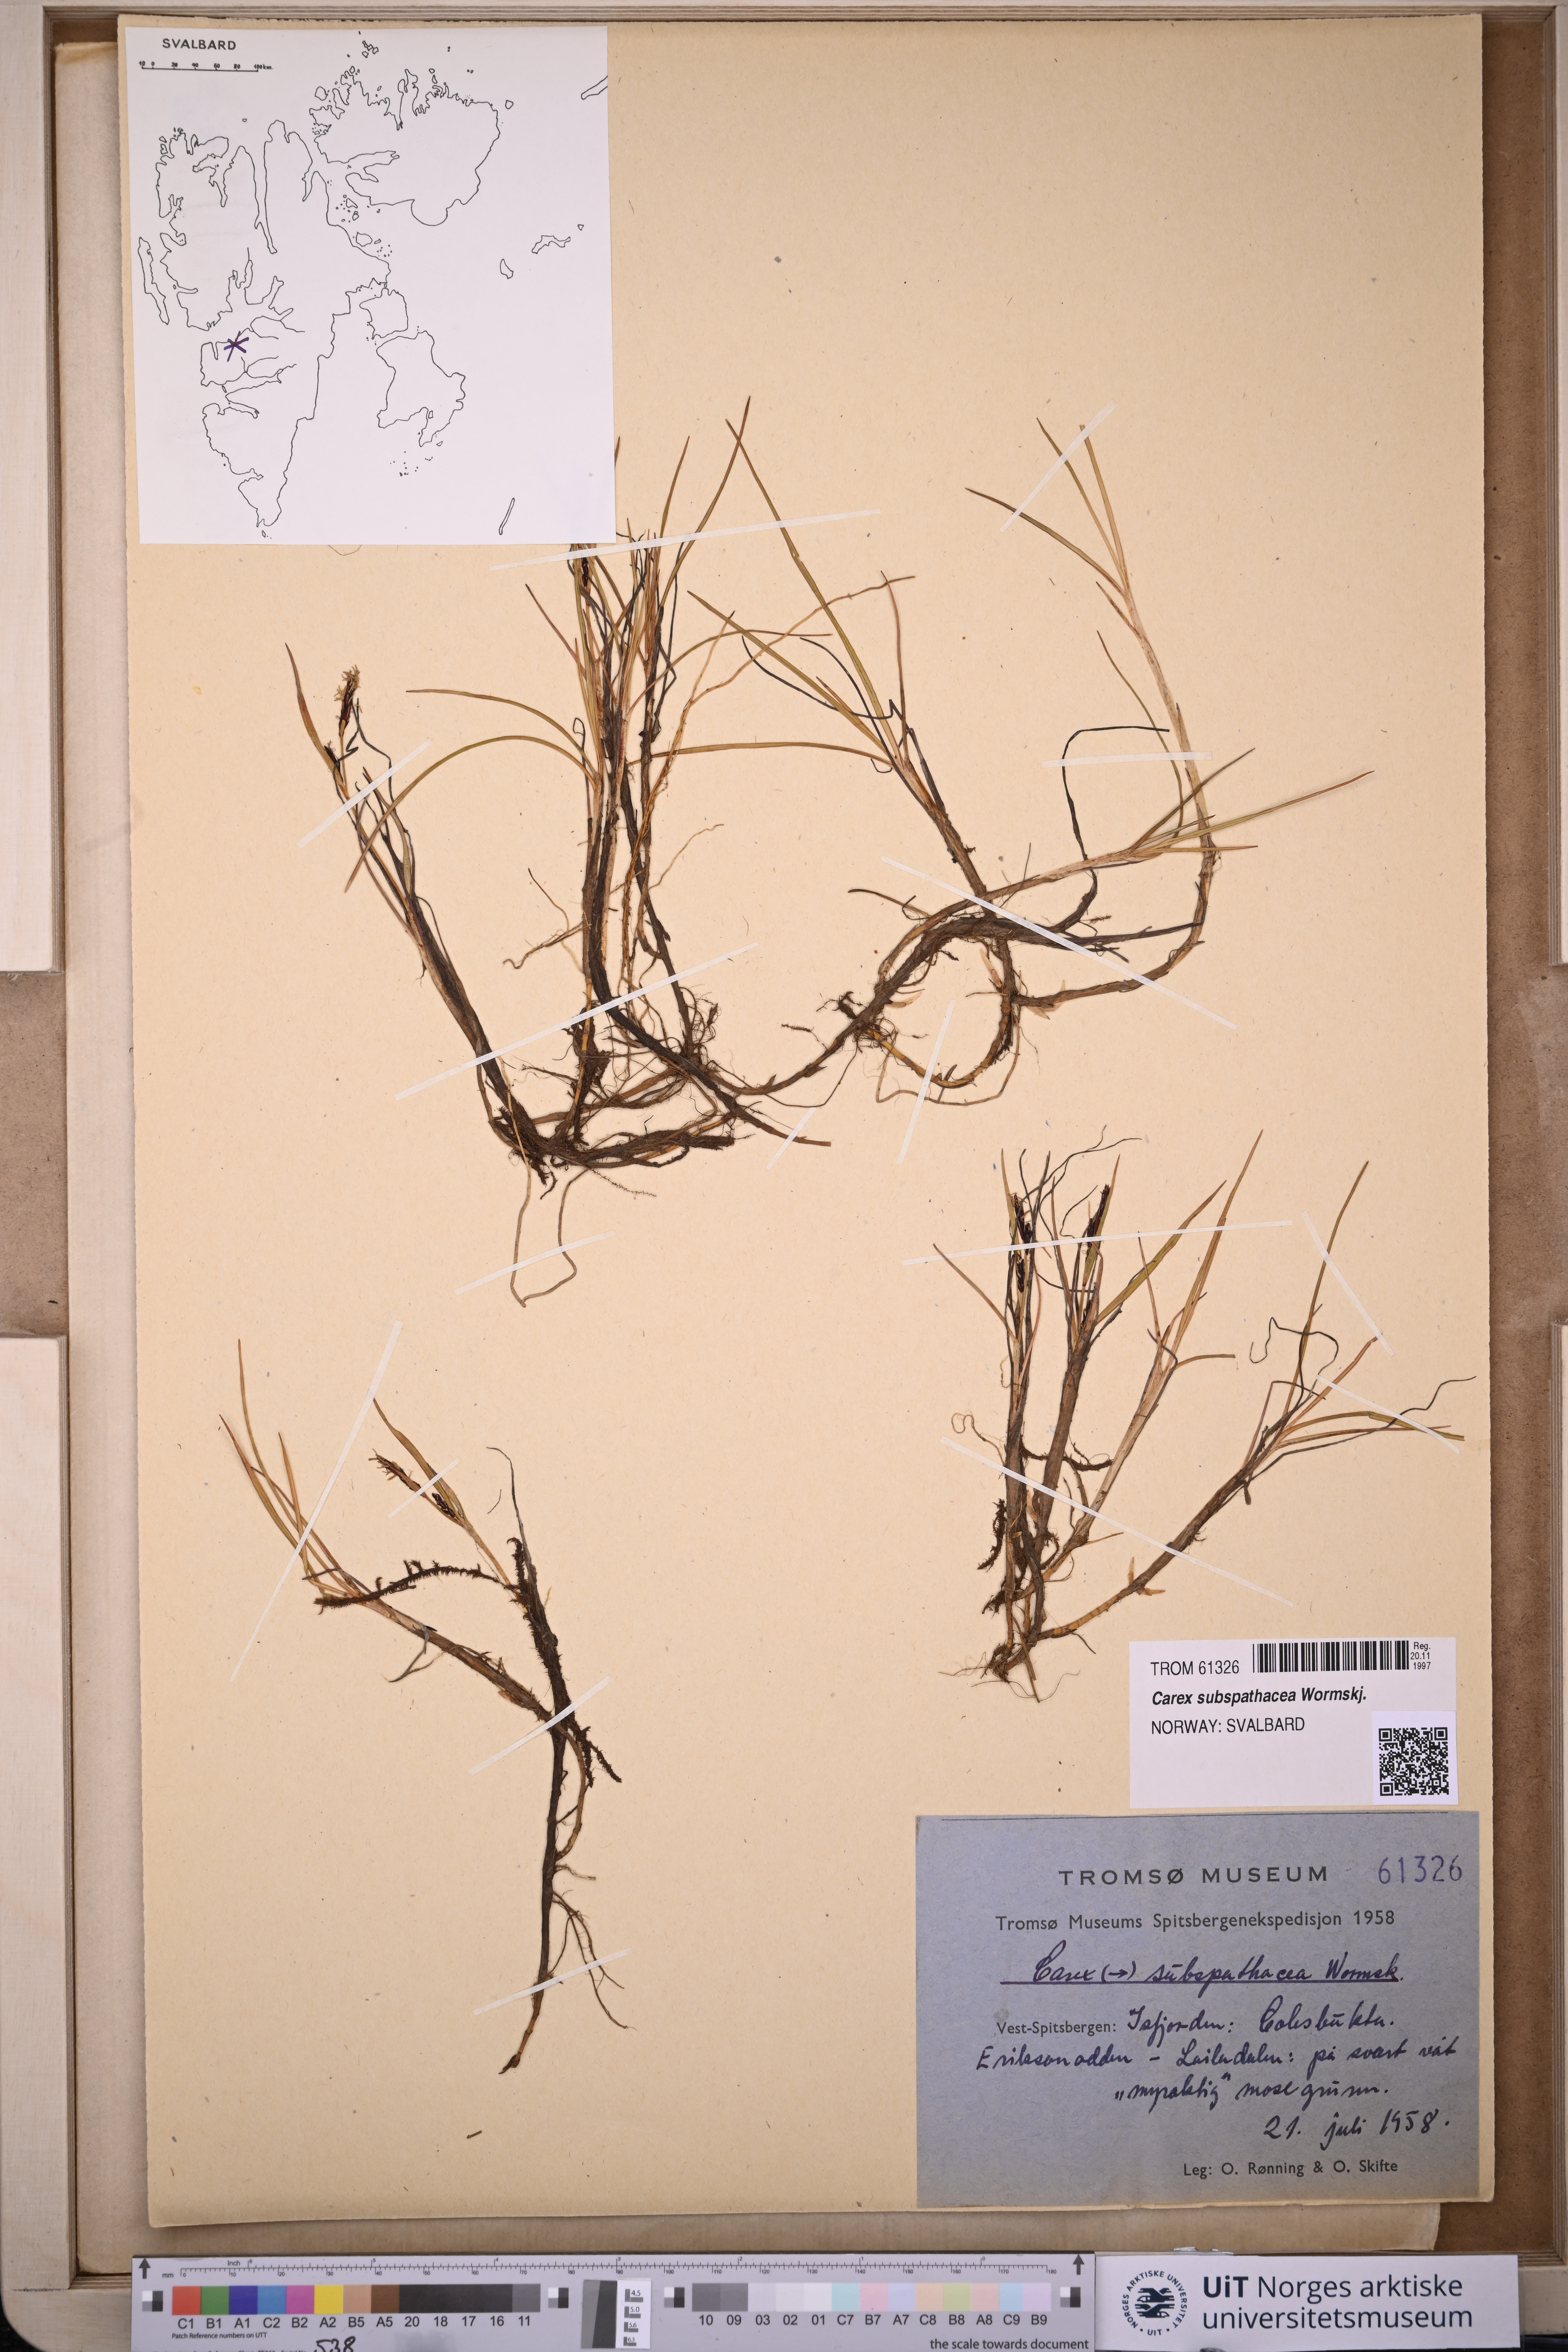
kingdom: Plantae
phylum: Tracheophyta
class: Liliopsida
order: Poales
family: Cyperaceae
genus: Carex
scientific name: Carex subspathacea
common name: Hoppner's sedge
